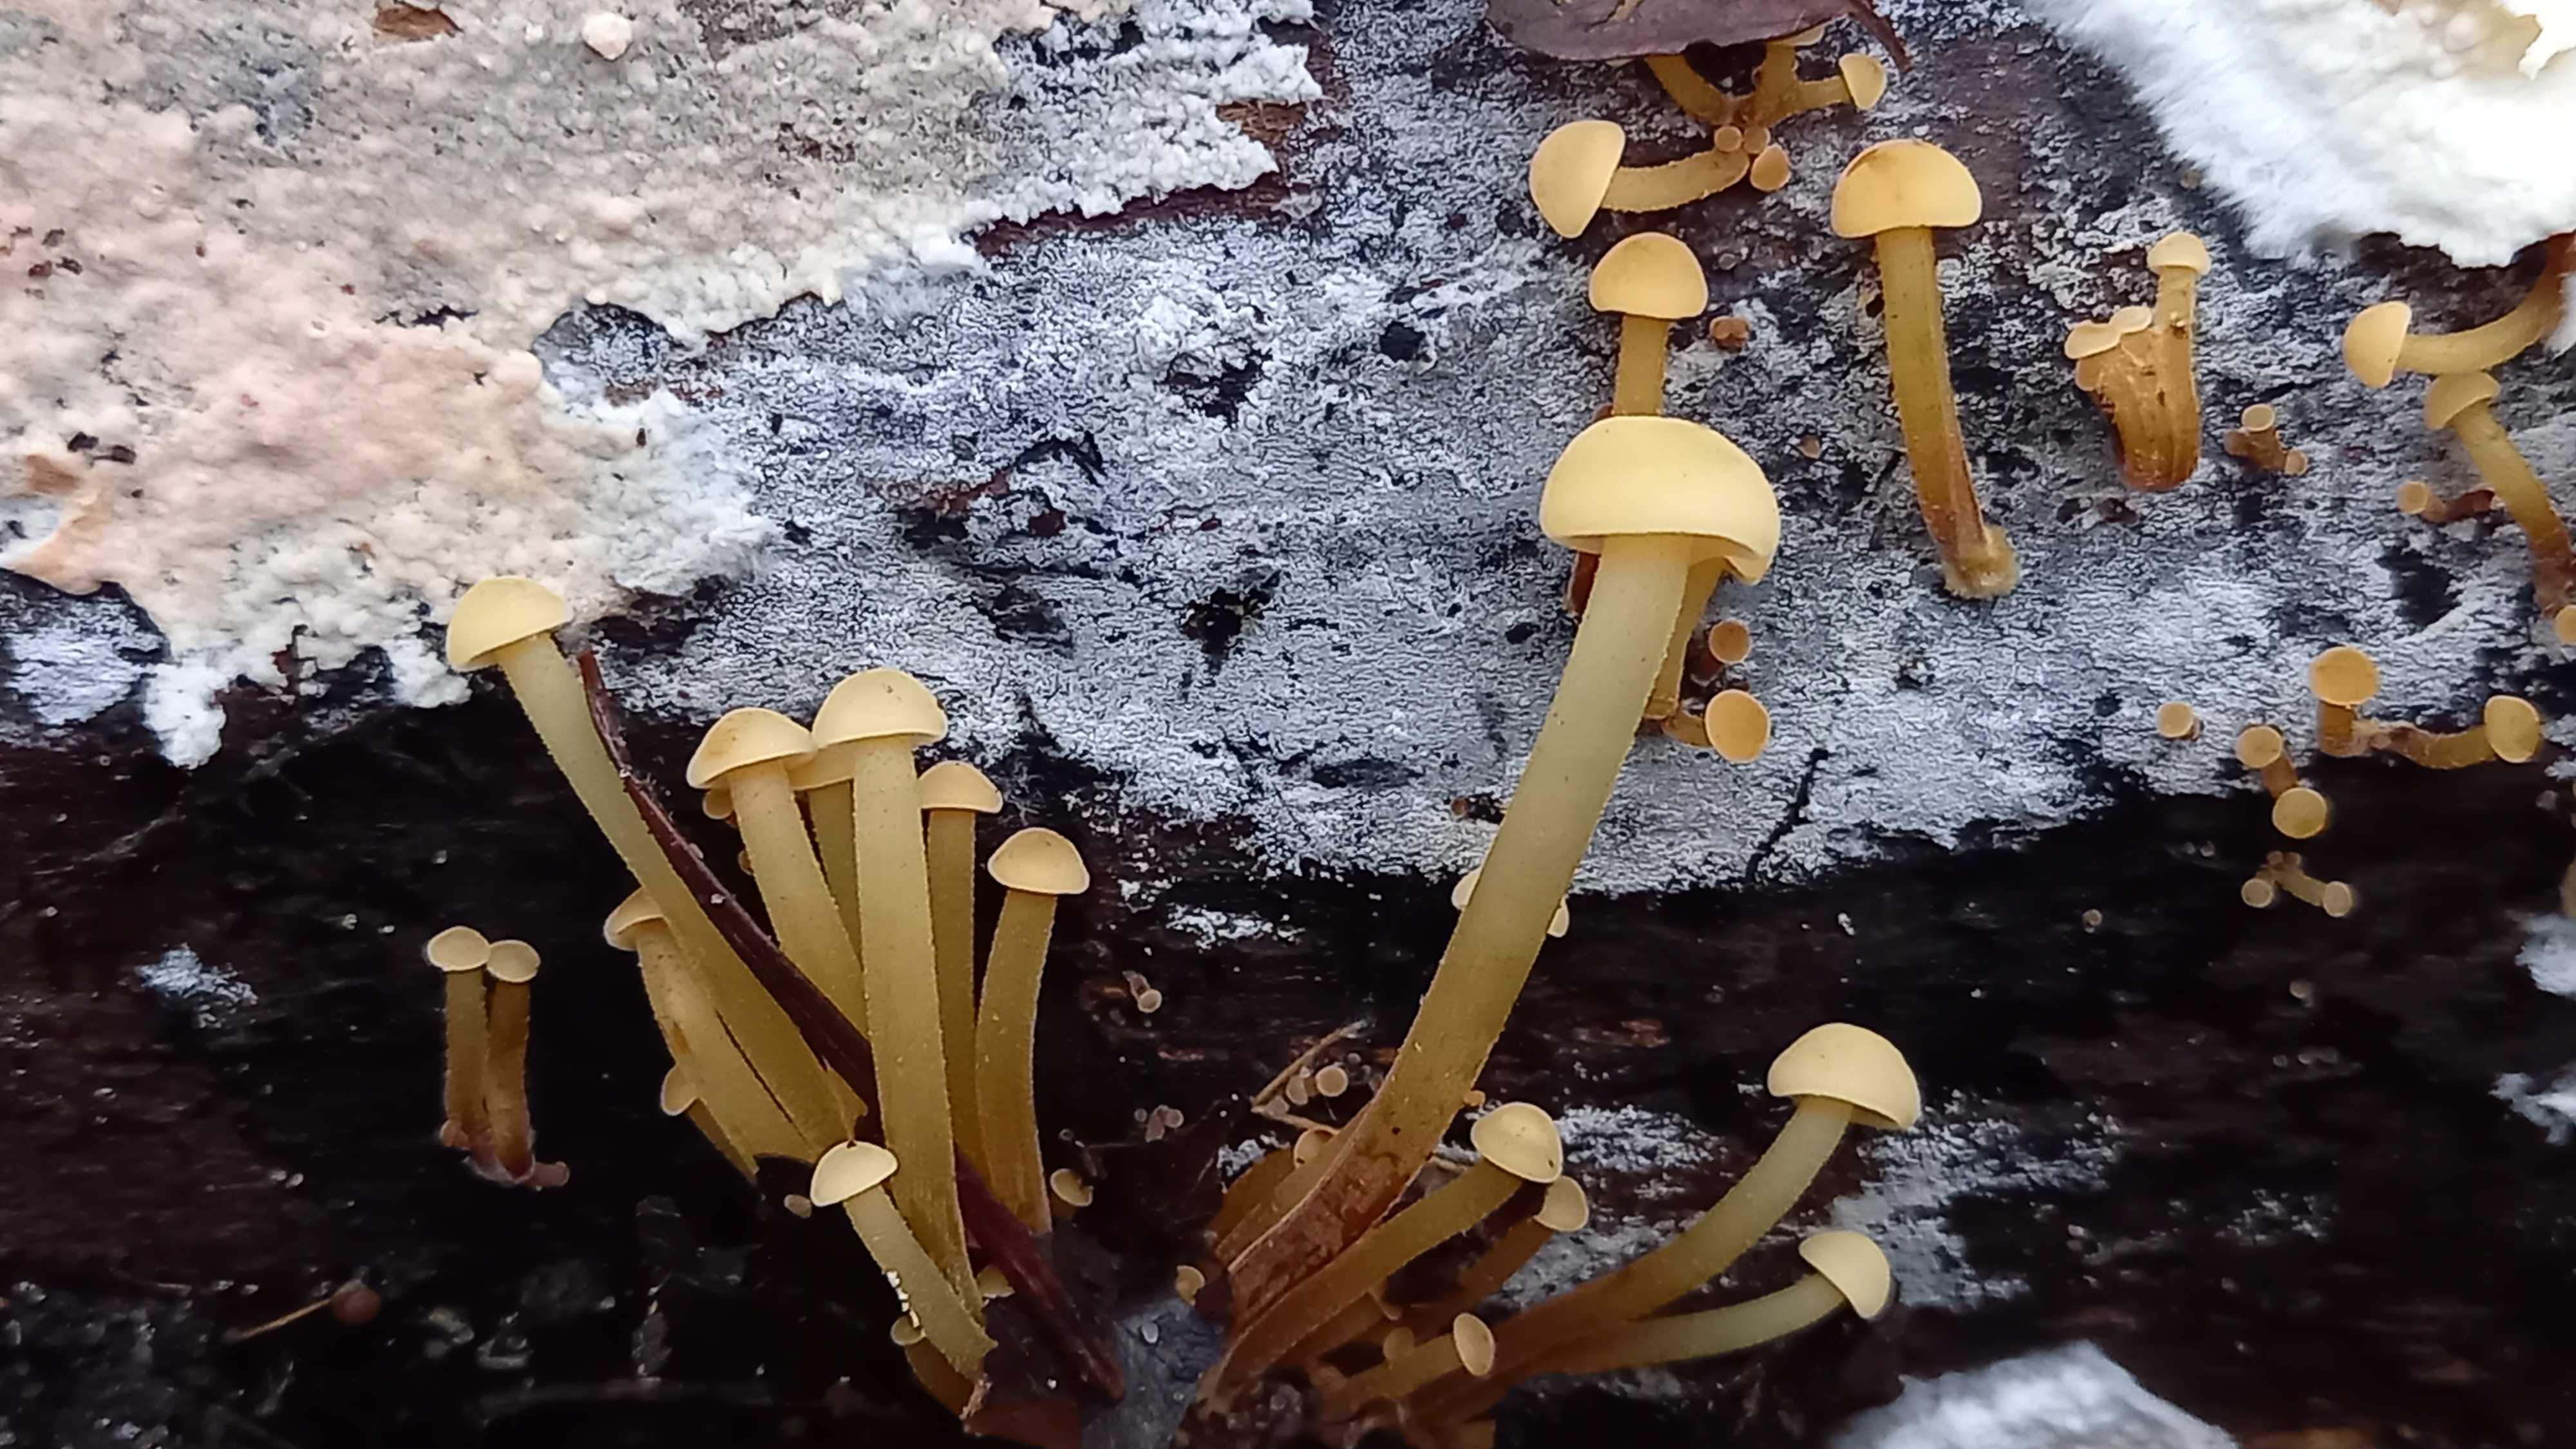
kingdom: Fungi
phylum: Basidiomycota
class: Agaricomycetes
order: Agaricales
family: Physalacriaceae
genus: Flammulina
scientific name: Flammulina velutipes
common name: gul fløjlsfod
